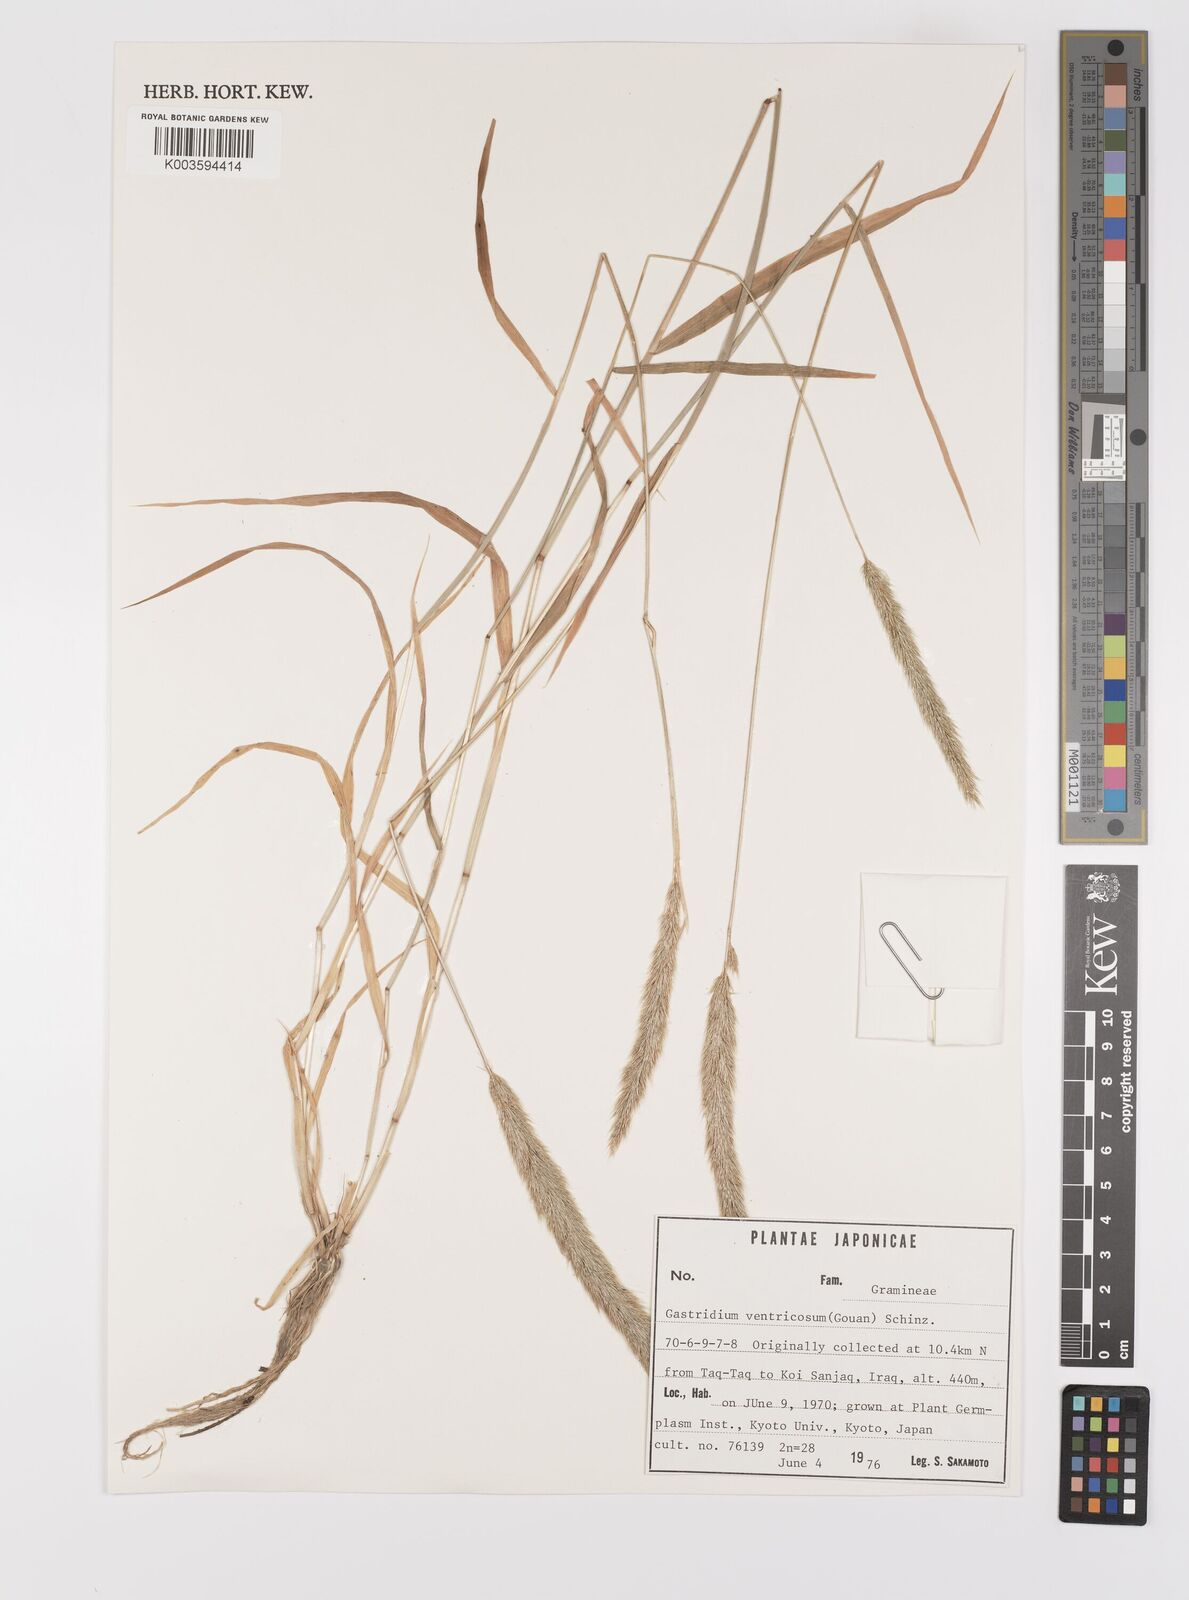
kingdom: Plantae
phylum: Tracheophyta
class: Liliopsida
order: Poales
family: Poaceae
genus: Gastridium
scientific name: Gastridium phleoides
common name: Nit grass
